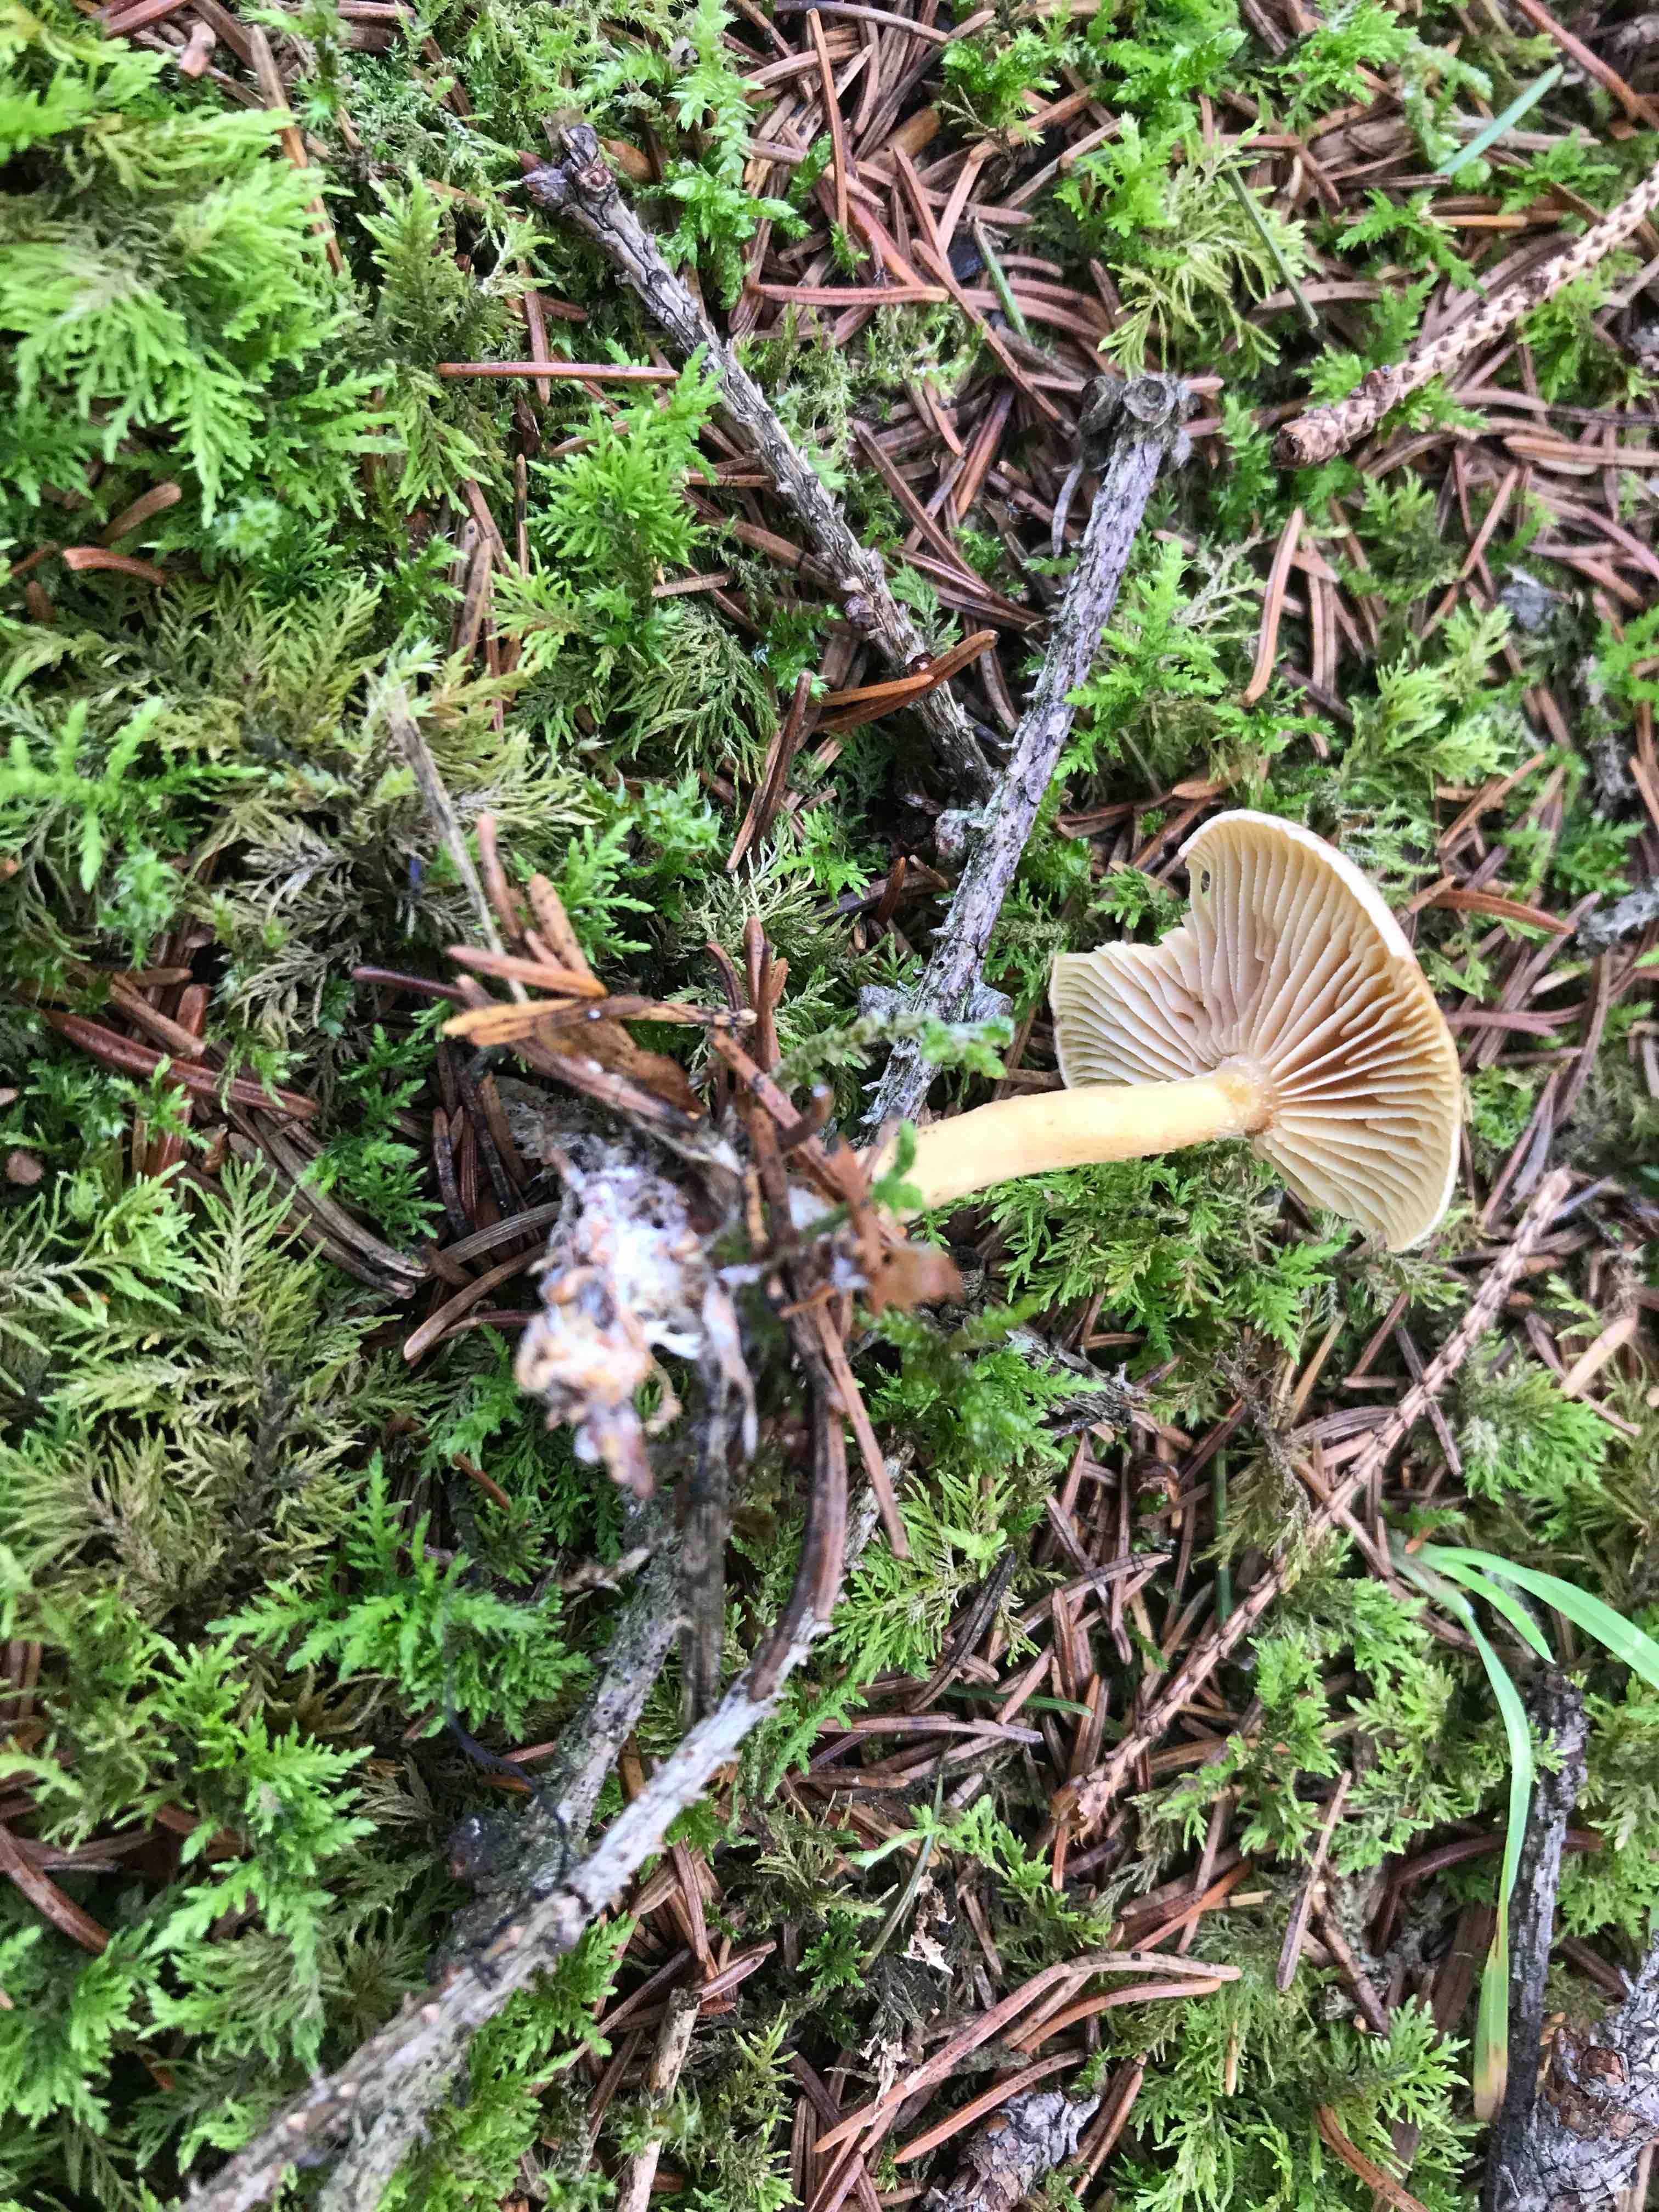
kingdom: Fungi
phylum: Basidiomycota
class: Agaricomycetes
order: Agaricales
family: Omphalotaceae
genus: Collybiopsis
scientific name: Collybiopsis peronata
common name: bestøvlet fladhat
